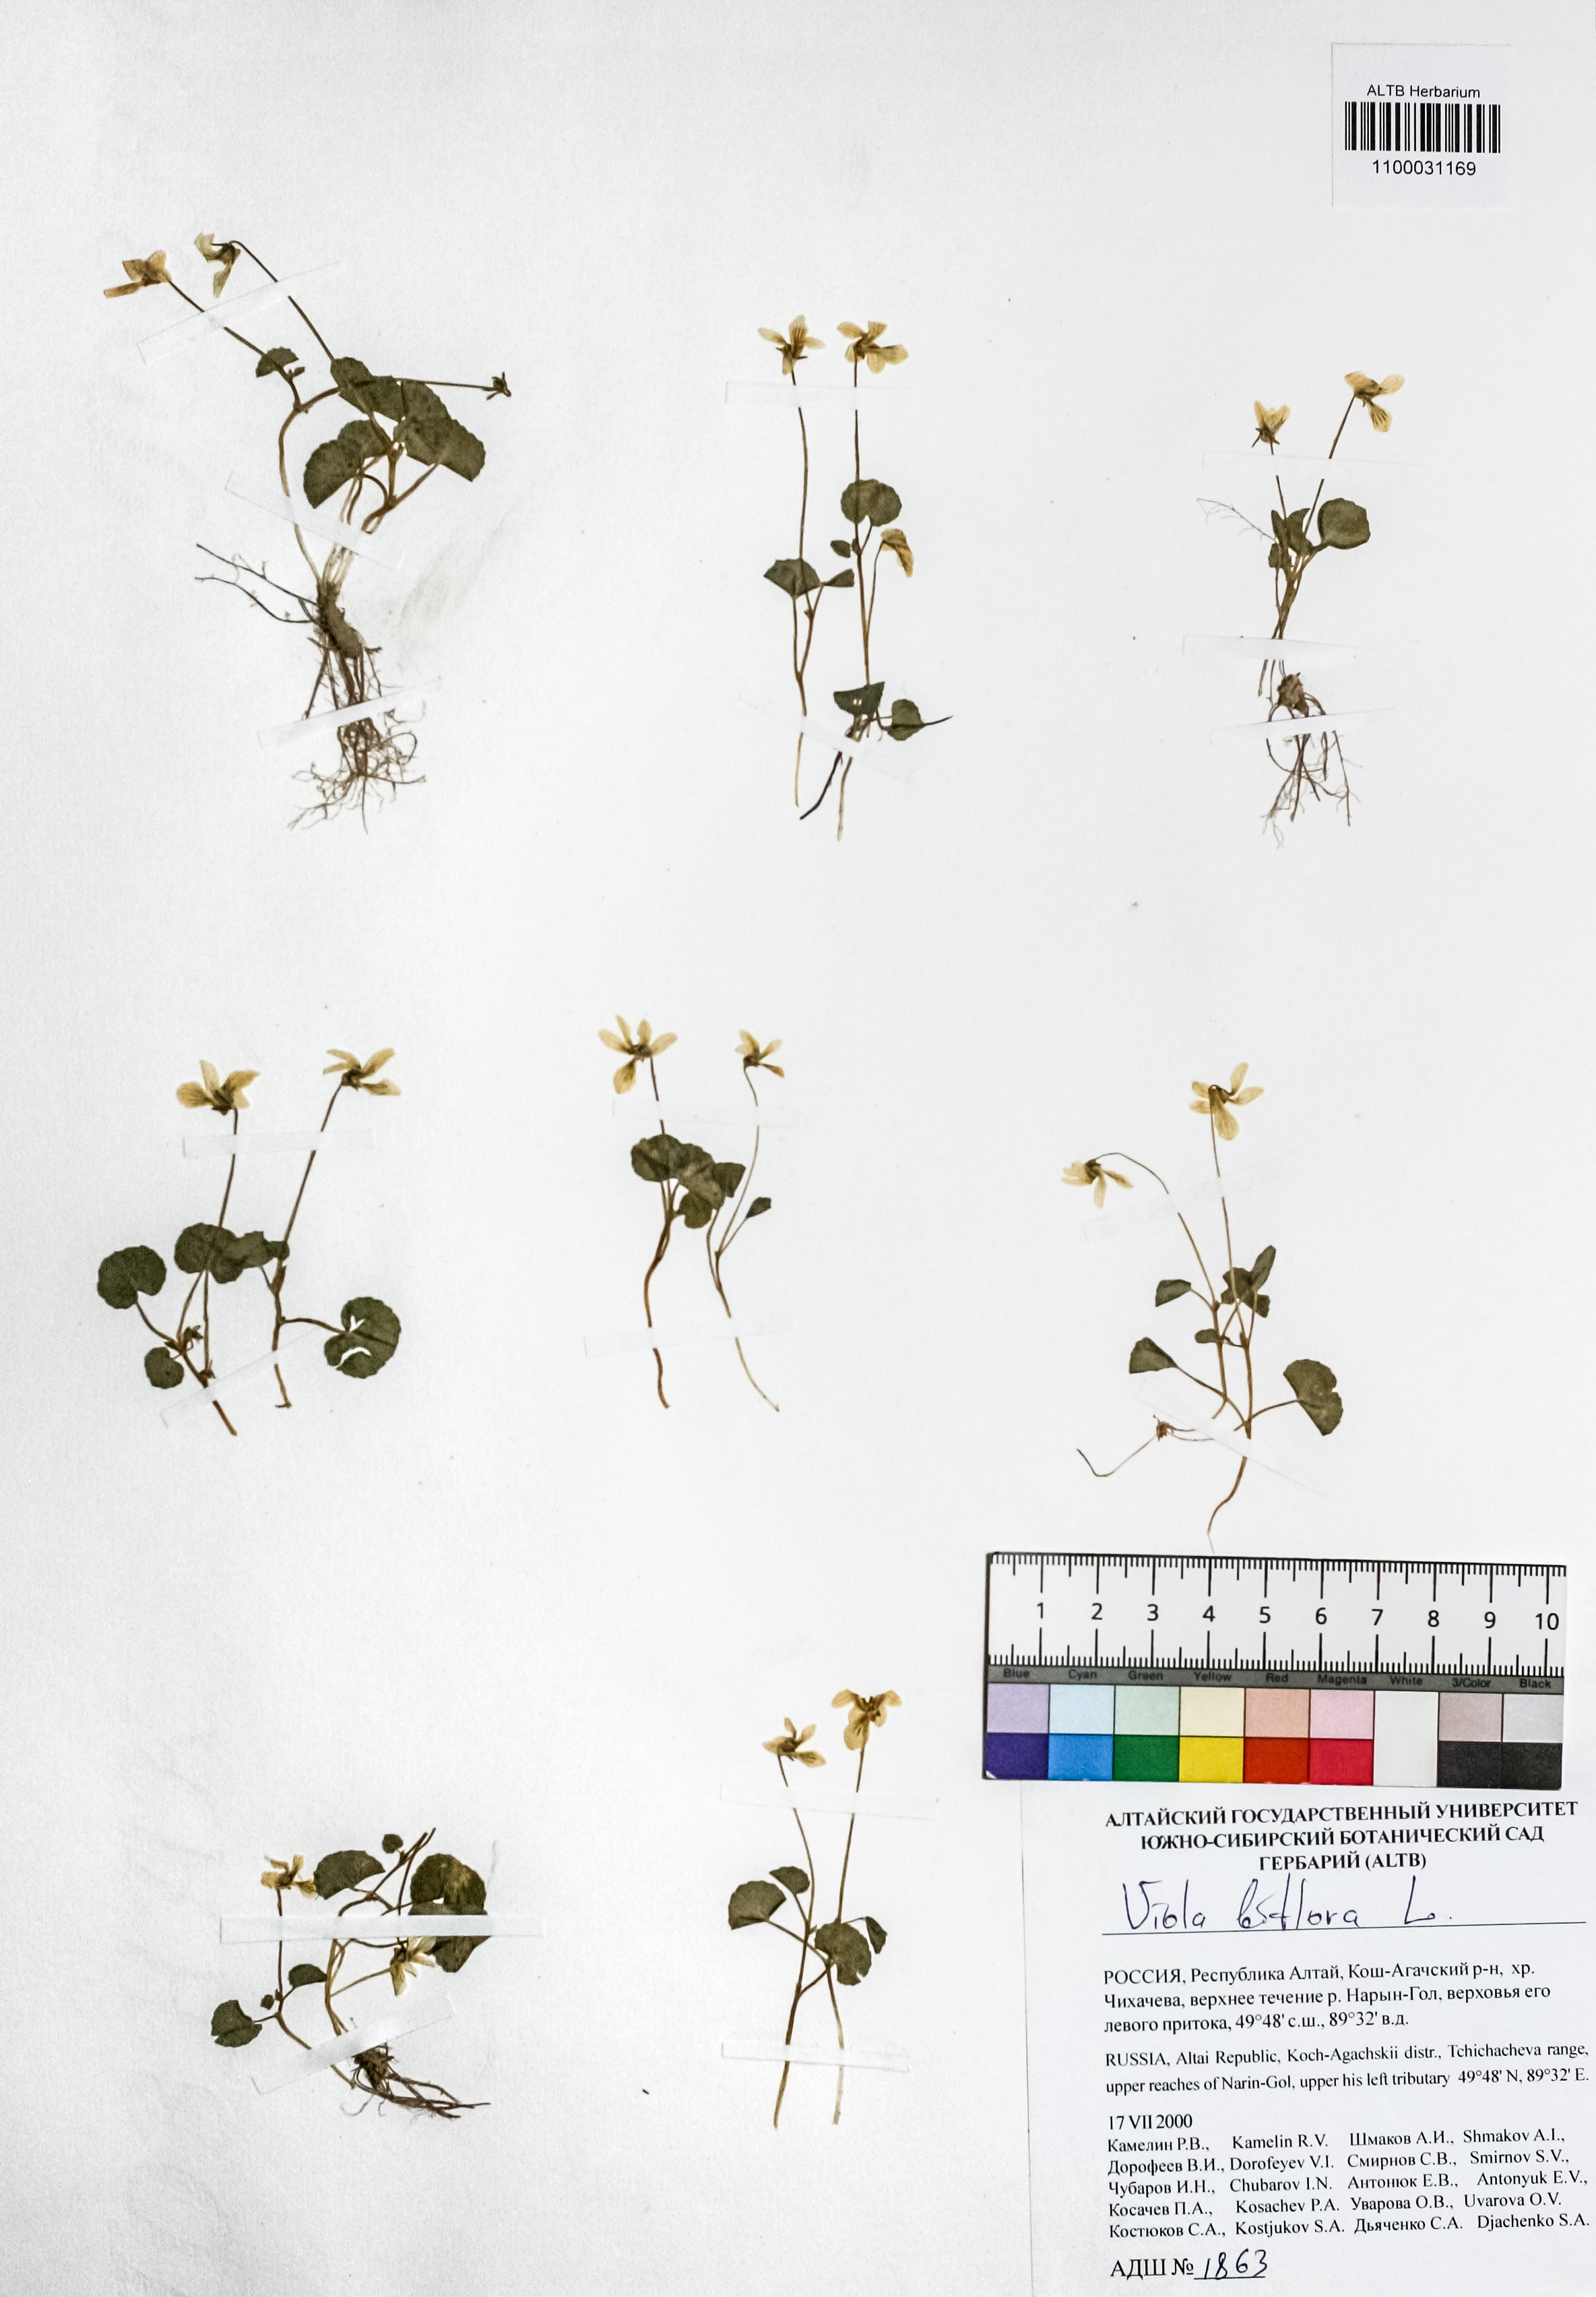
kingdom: Plantae
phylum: Tracheophyta
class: Magnoliopsida
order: Malpighiales
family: Violaceae
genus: Viola
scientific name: Viola biflora
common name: Alpine yellow violet
